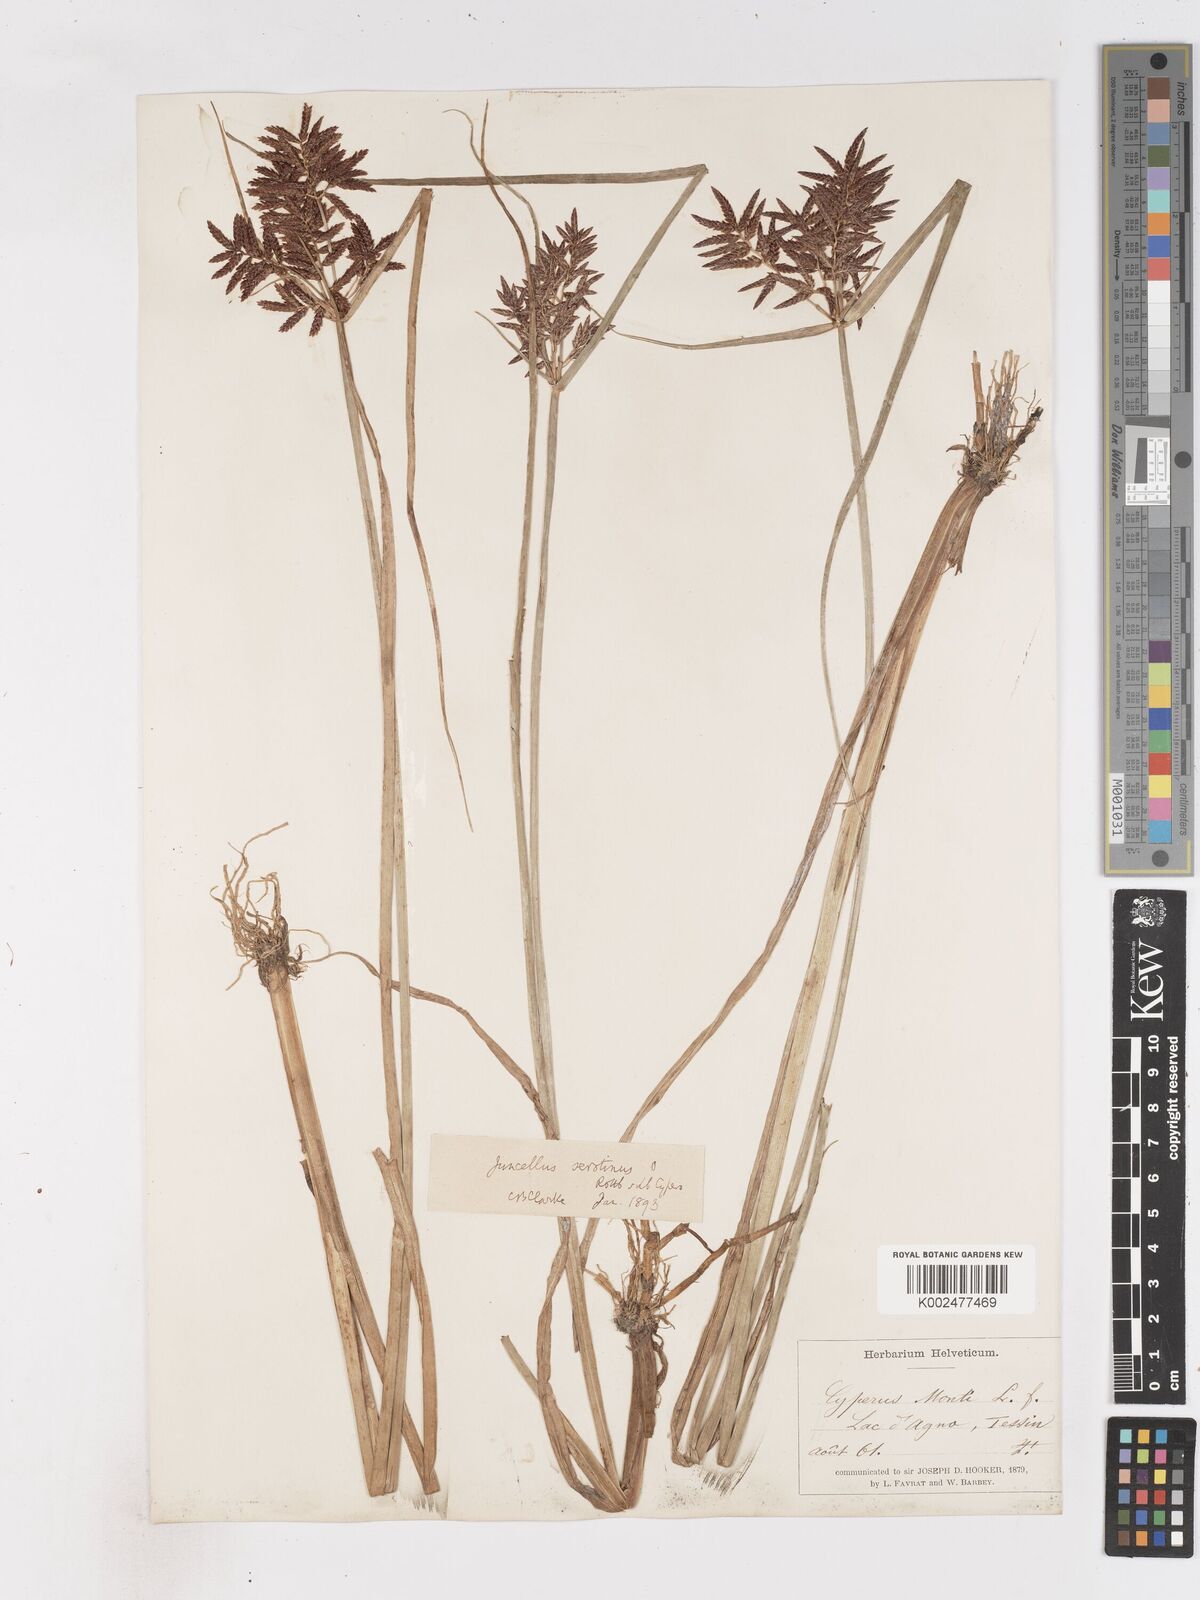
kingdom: Plantae
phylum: Tracheophyta
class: Liliopsida
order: Poales
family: Cyperaceae
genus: Cyperus
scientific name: Cyperus serotinus
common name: Tidalmarsh flatsedge
